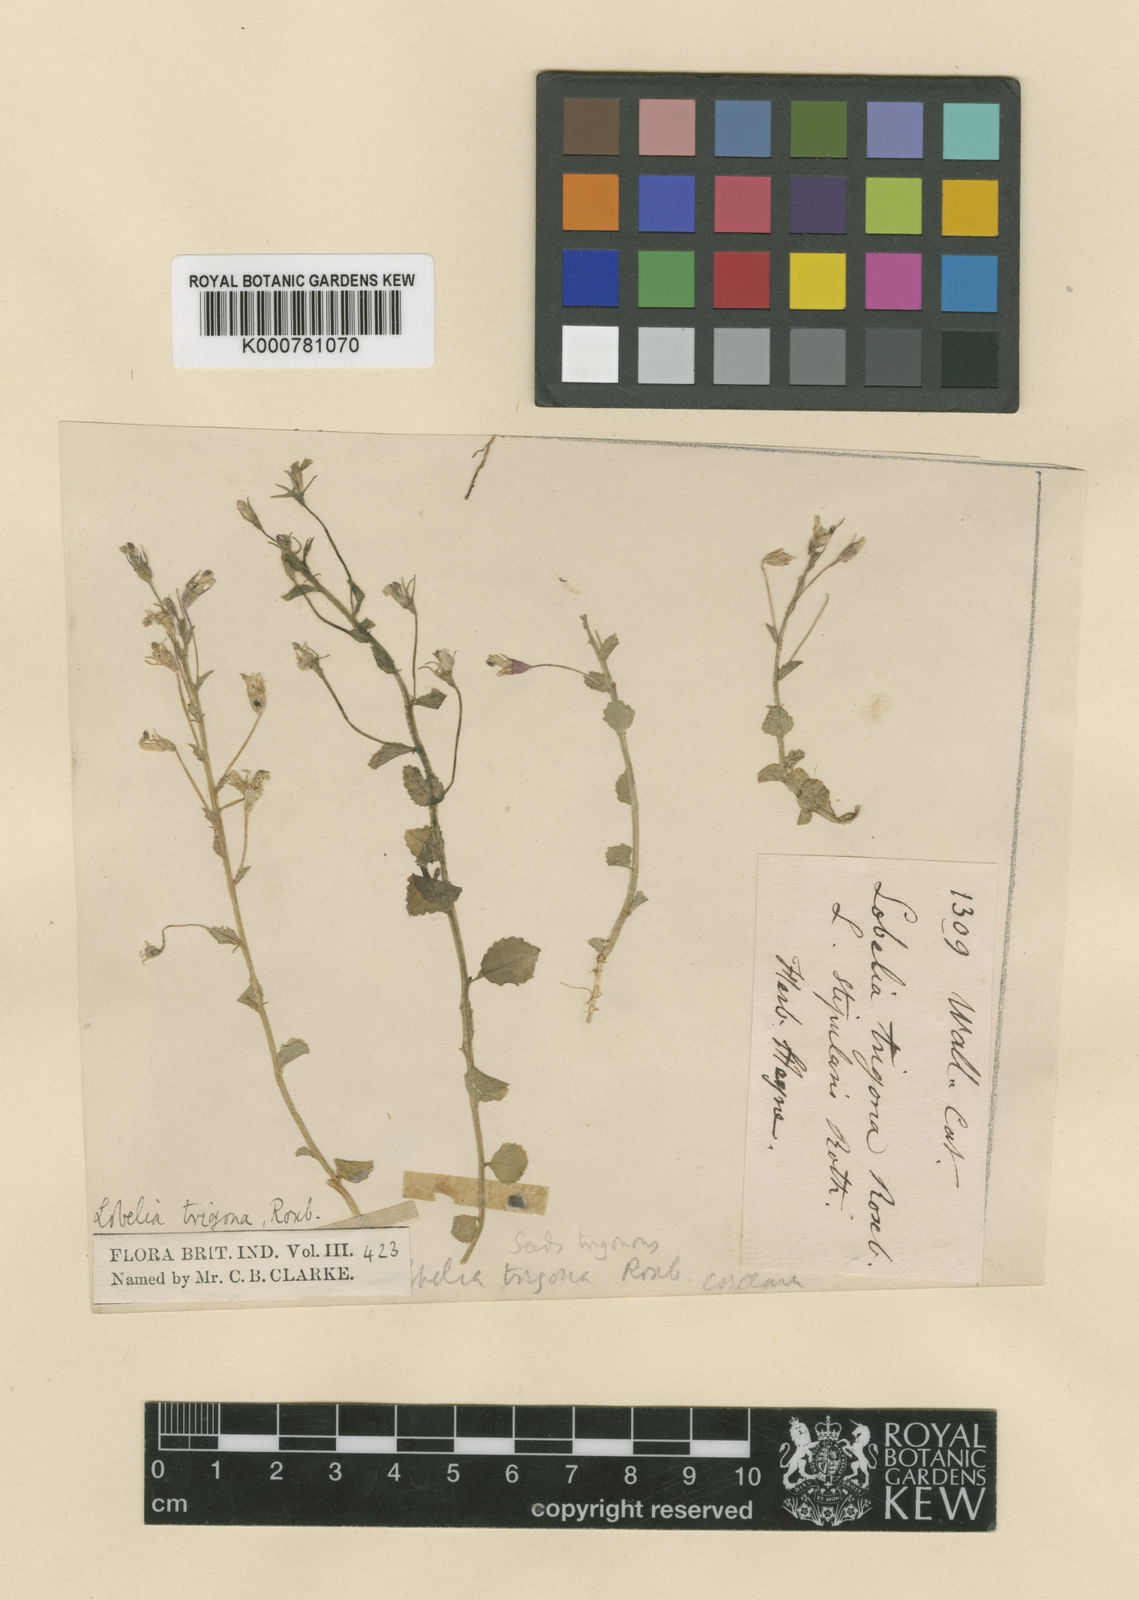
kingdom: Plantae
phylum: Tracheophyta
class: Magnoliopsida
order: Asterales
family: Campanulaceae
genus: Lobelia
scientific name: Lobelia alsinoides
